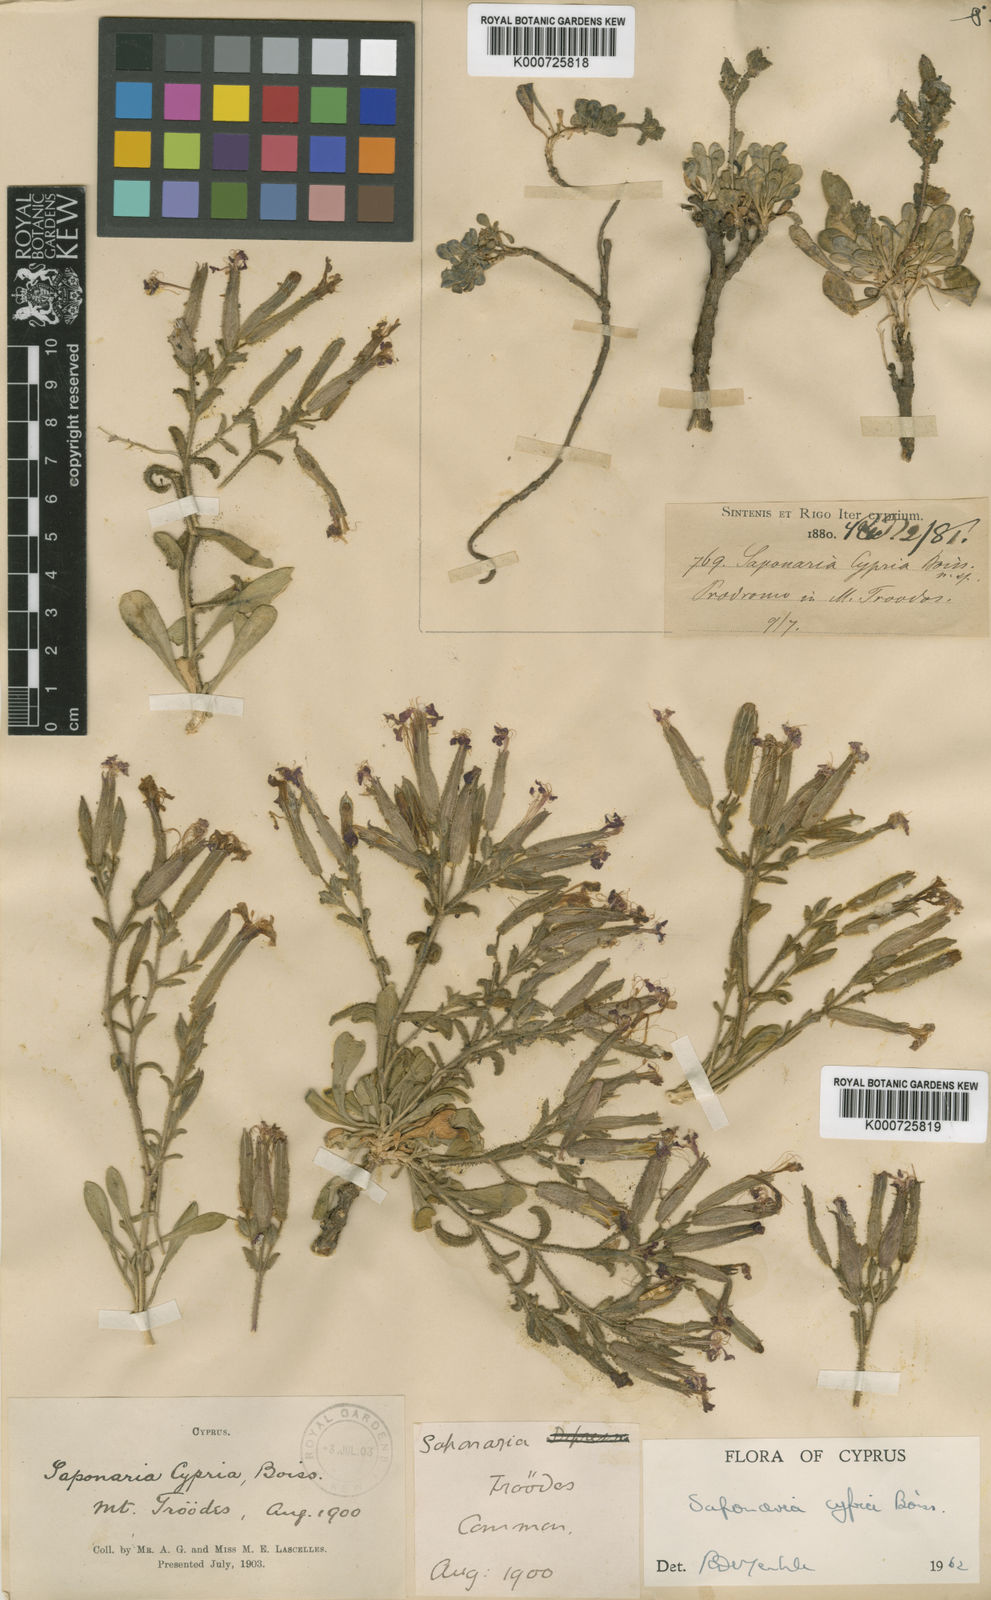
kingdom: Plantae
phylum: Tracheophyta
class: Magnoliopsida
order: Caryophyllales
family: Caryophyllaceae
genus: Saponaria
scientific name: Saponaria cypria
